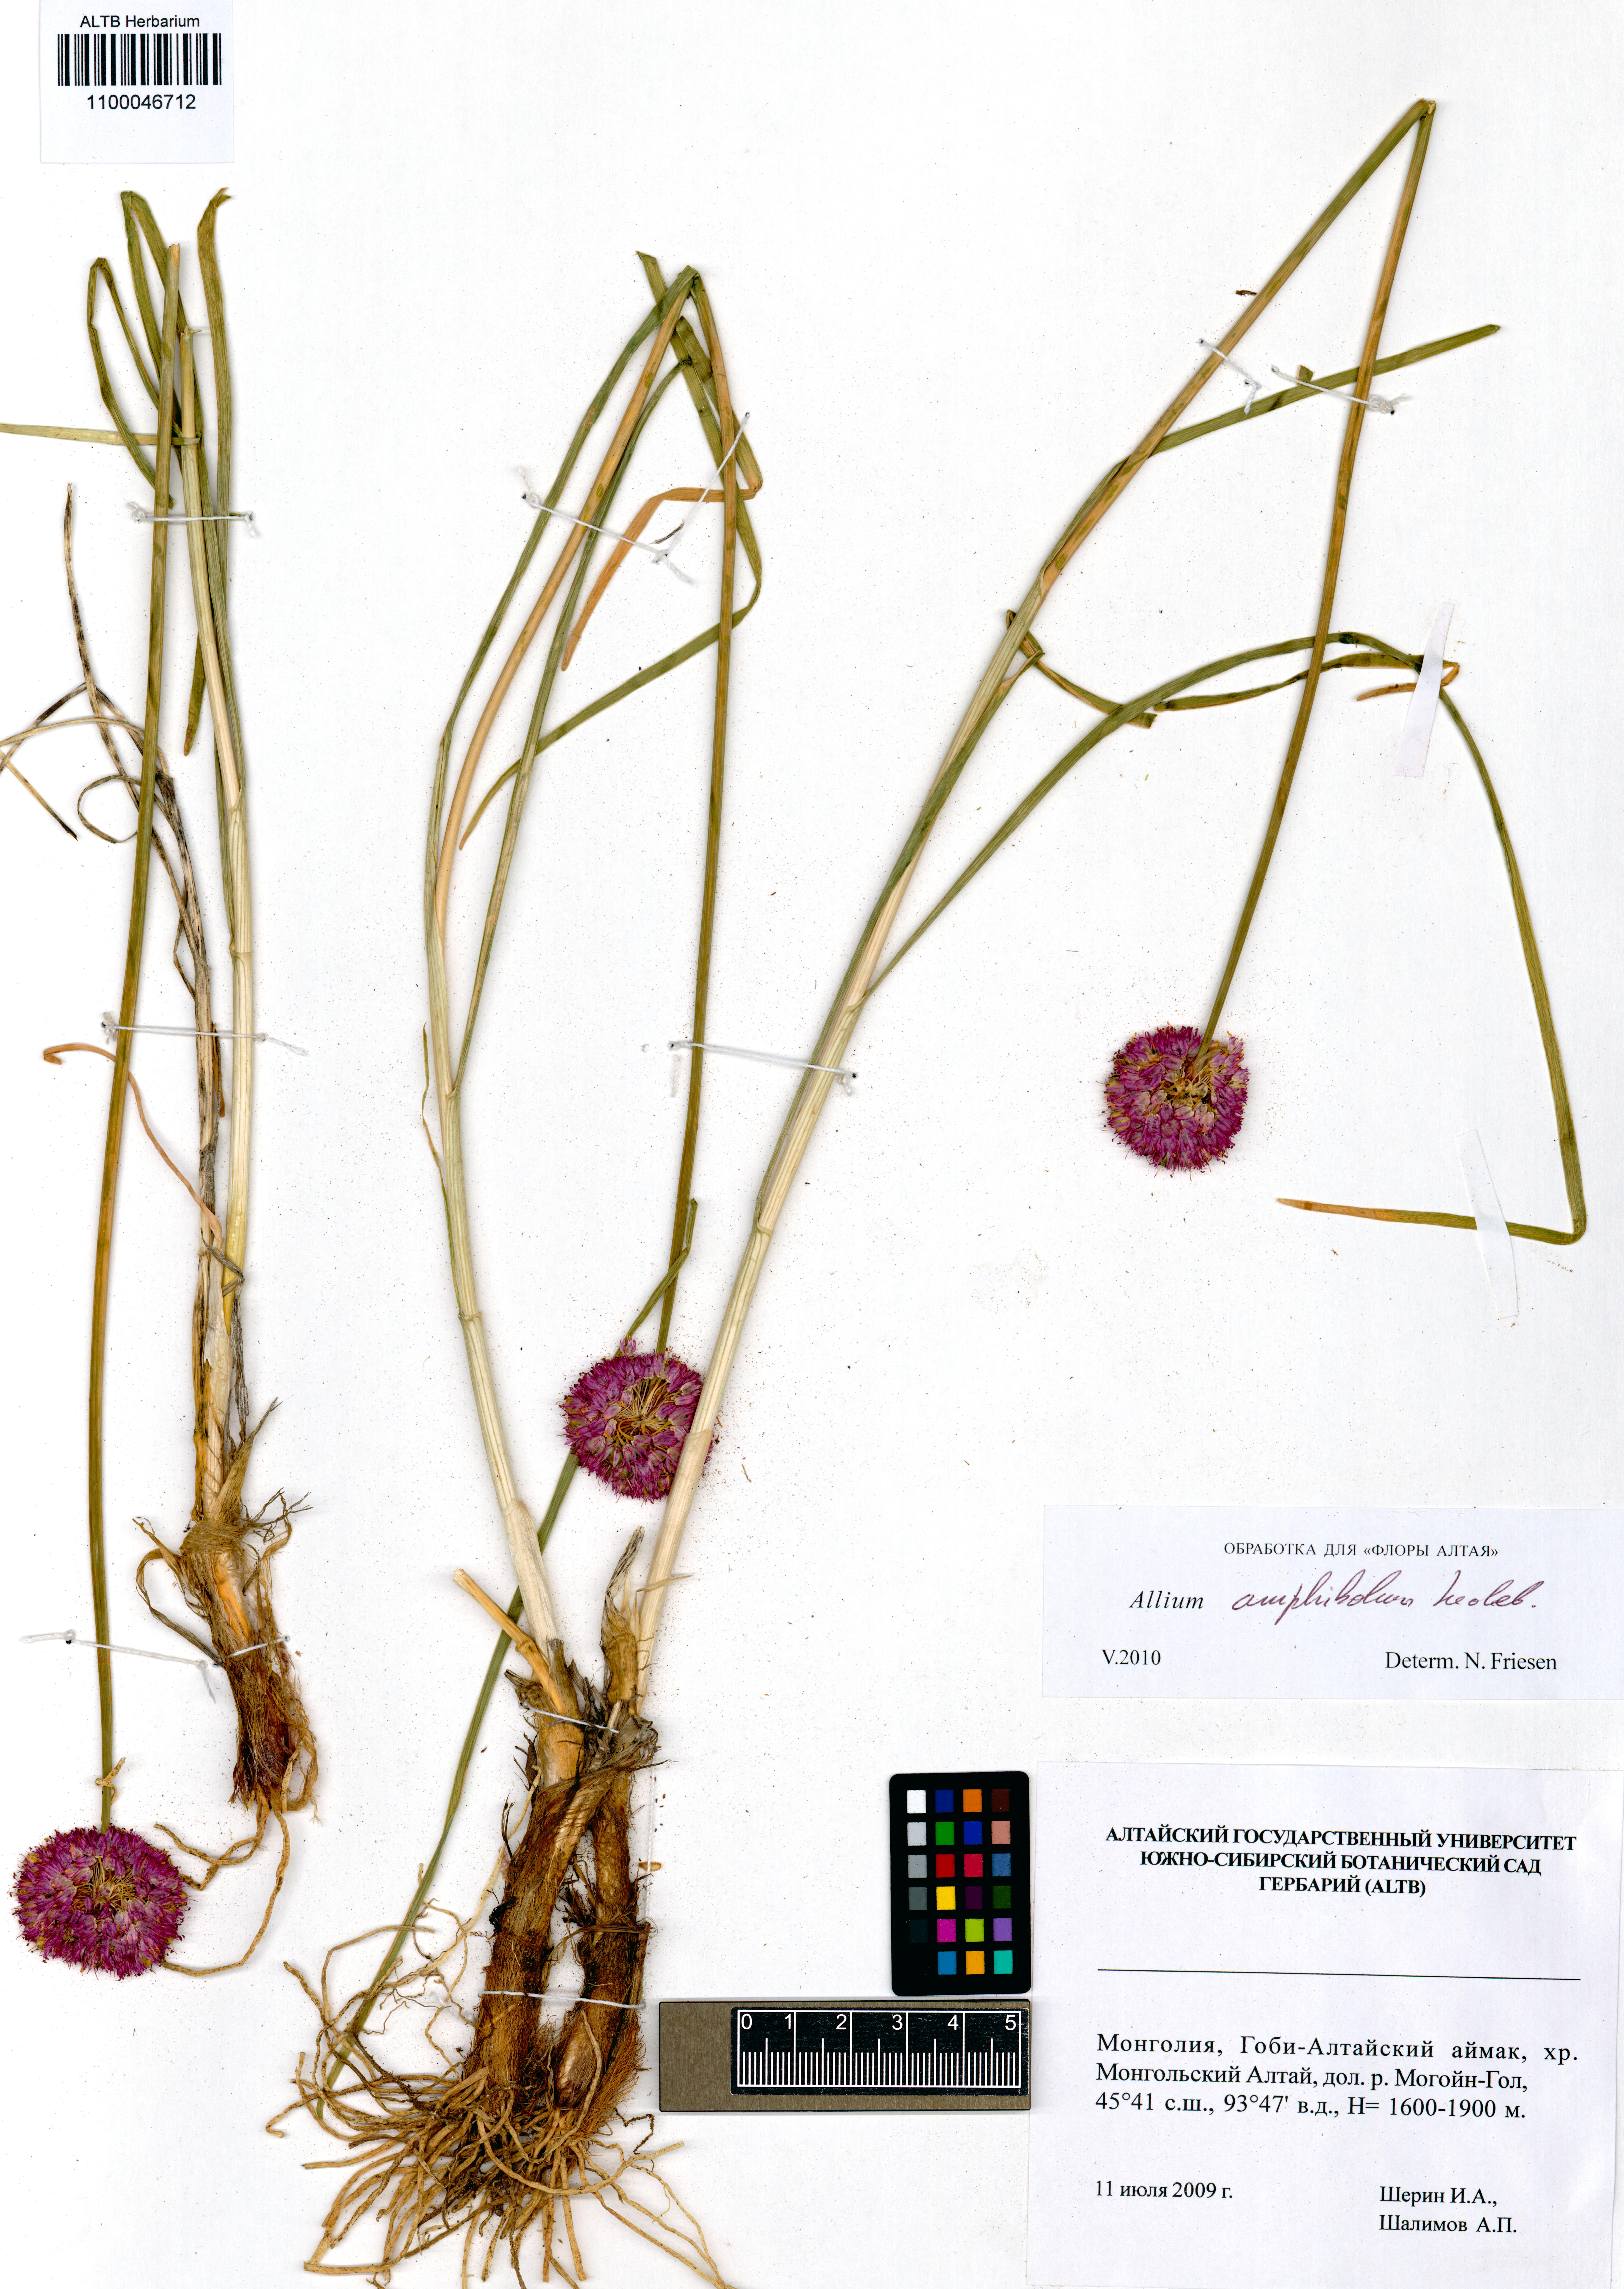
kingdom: Plantae
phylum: Tracheophyta
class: Liliopsida
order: Asparagales
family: Amaryllidaceae
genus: Allium
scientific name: Allium amphibolum
